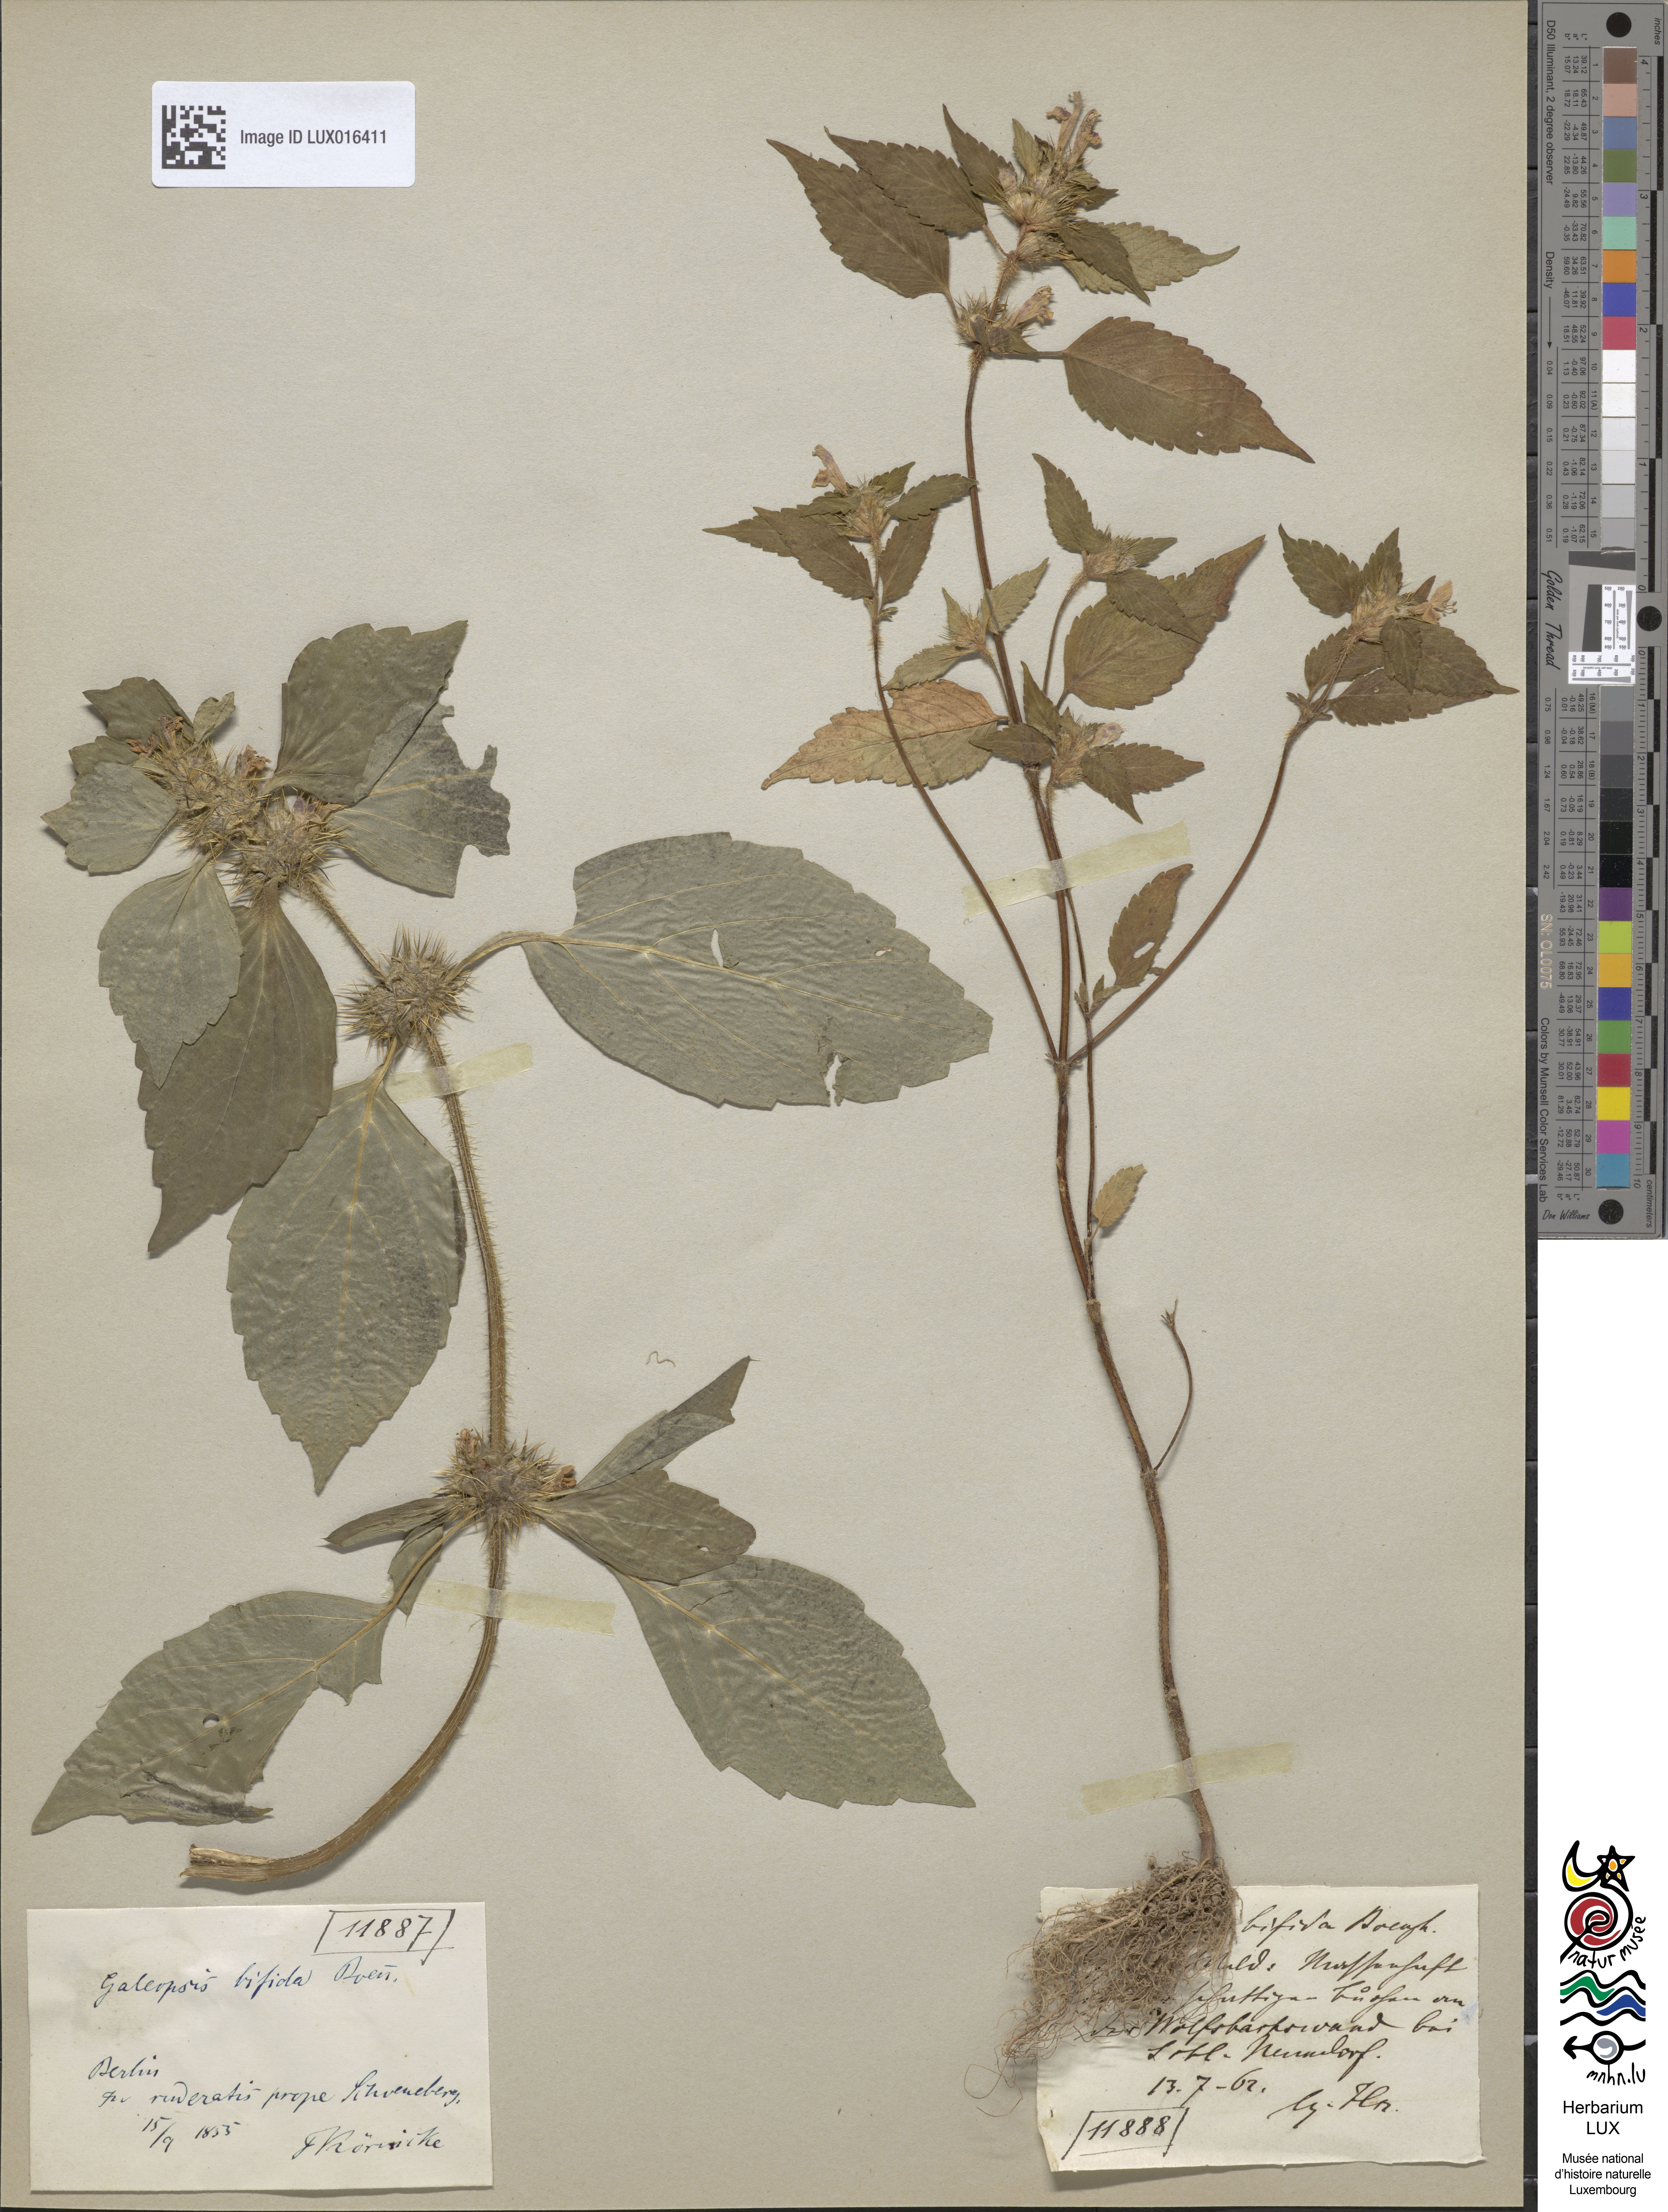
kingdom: Plantae
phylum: Tracheophyta
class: Magnoliopsida
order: Lamiales
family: Lamiaceae
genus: Galeopsis
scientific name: Galeopsis bifida
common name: Bifid hemp-nettle
